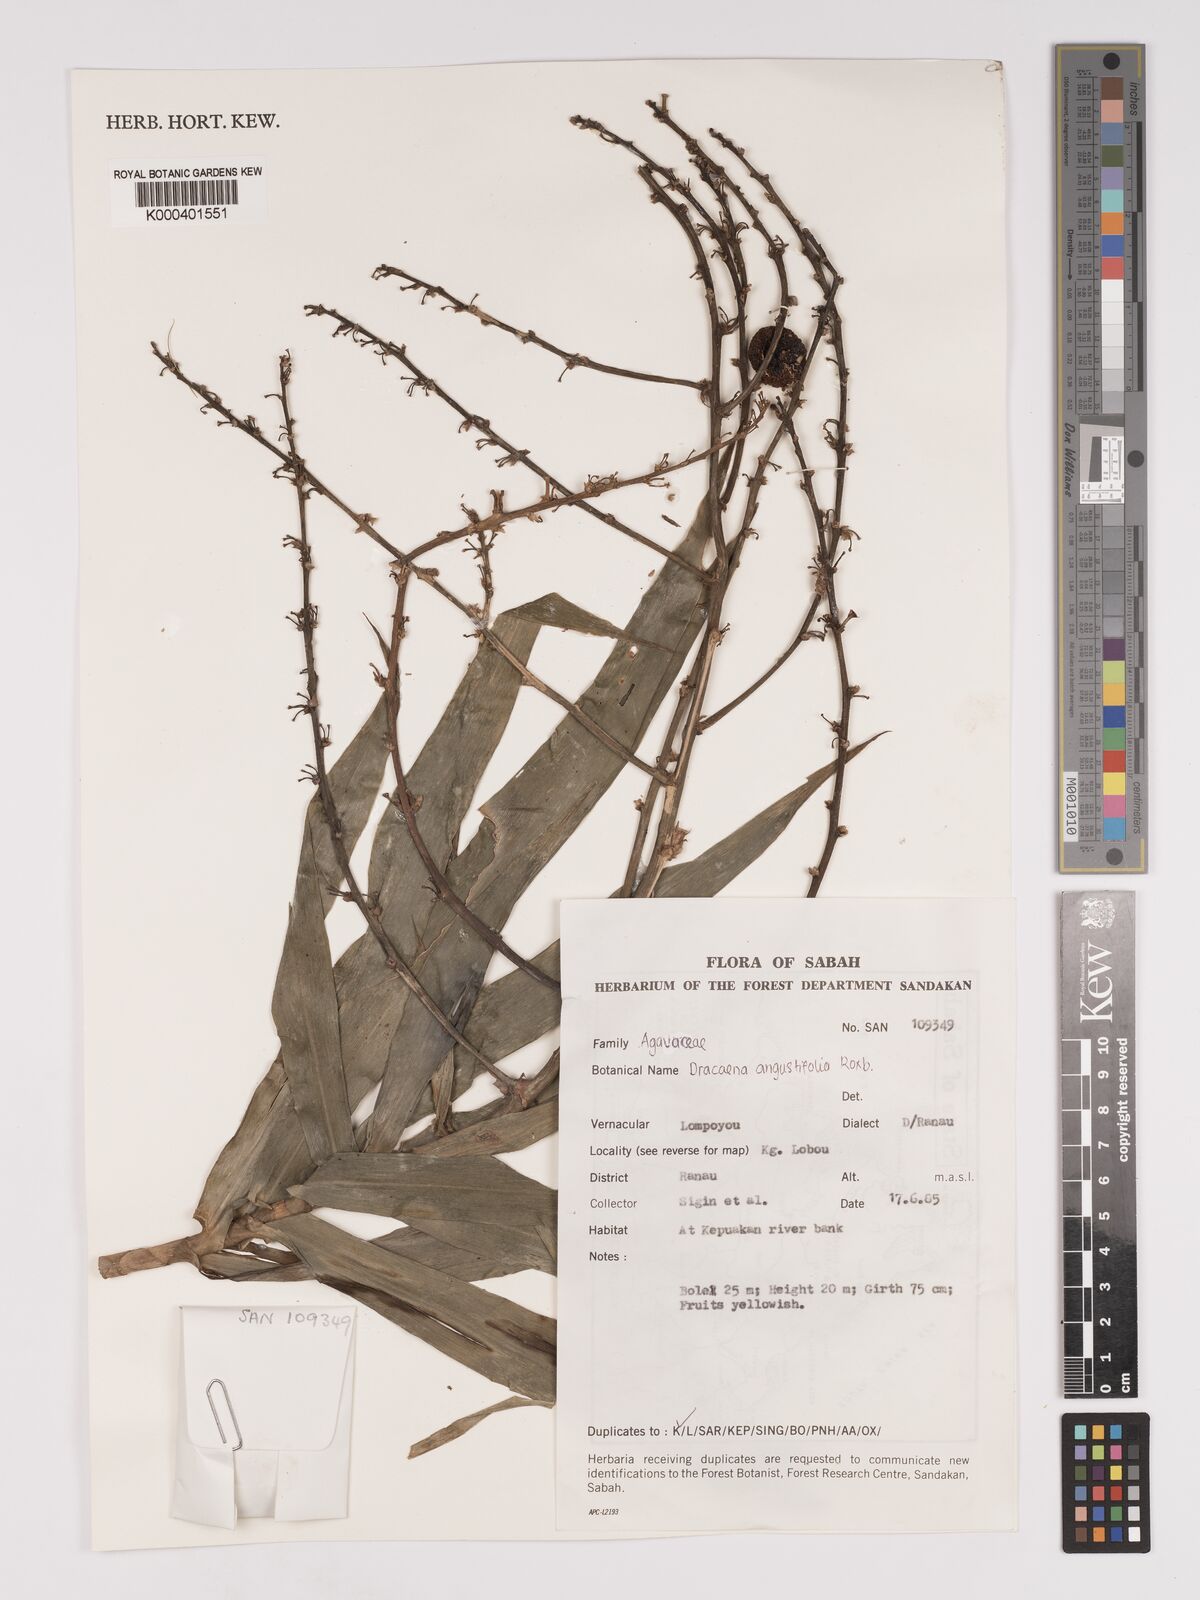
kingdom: Plantae
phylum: Tracheophyta
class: Liliopsida
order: Asparagales
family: Asparagaceae
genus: Dracaena
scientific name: Dracaena angustifolia
